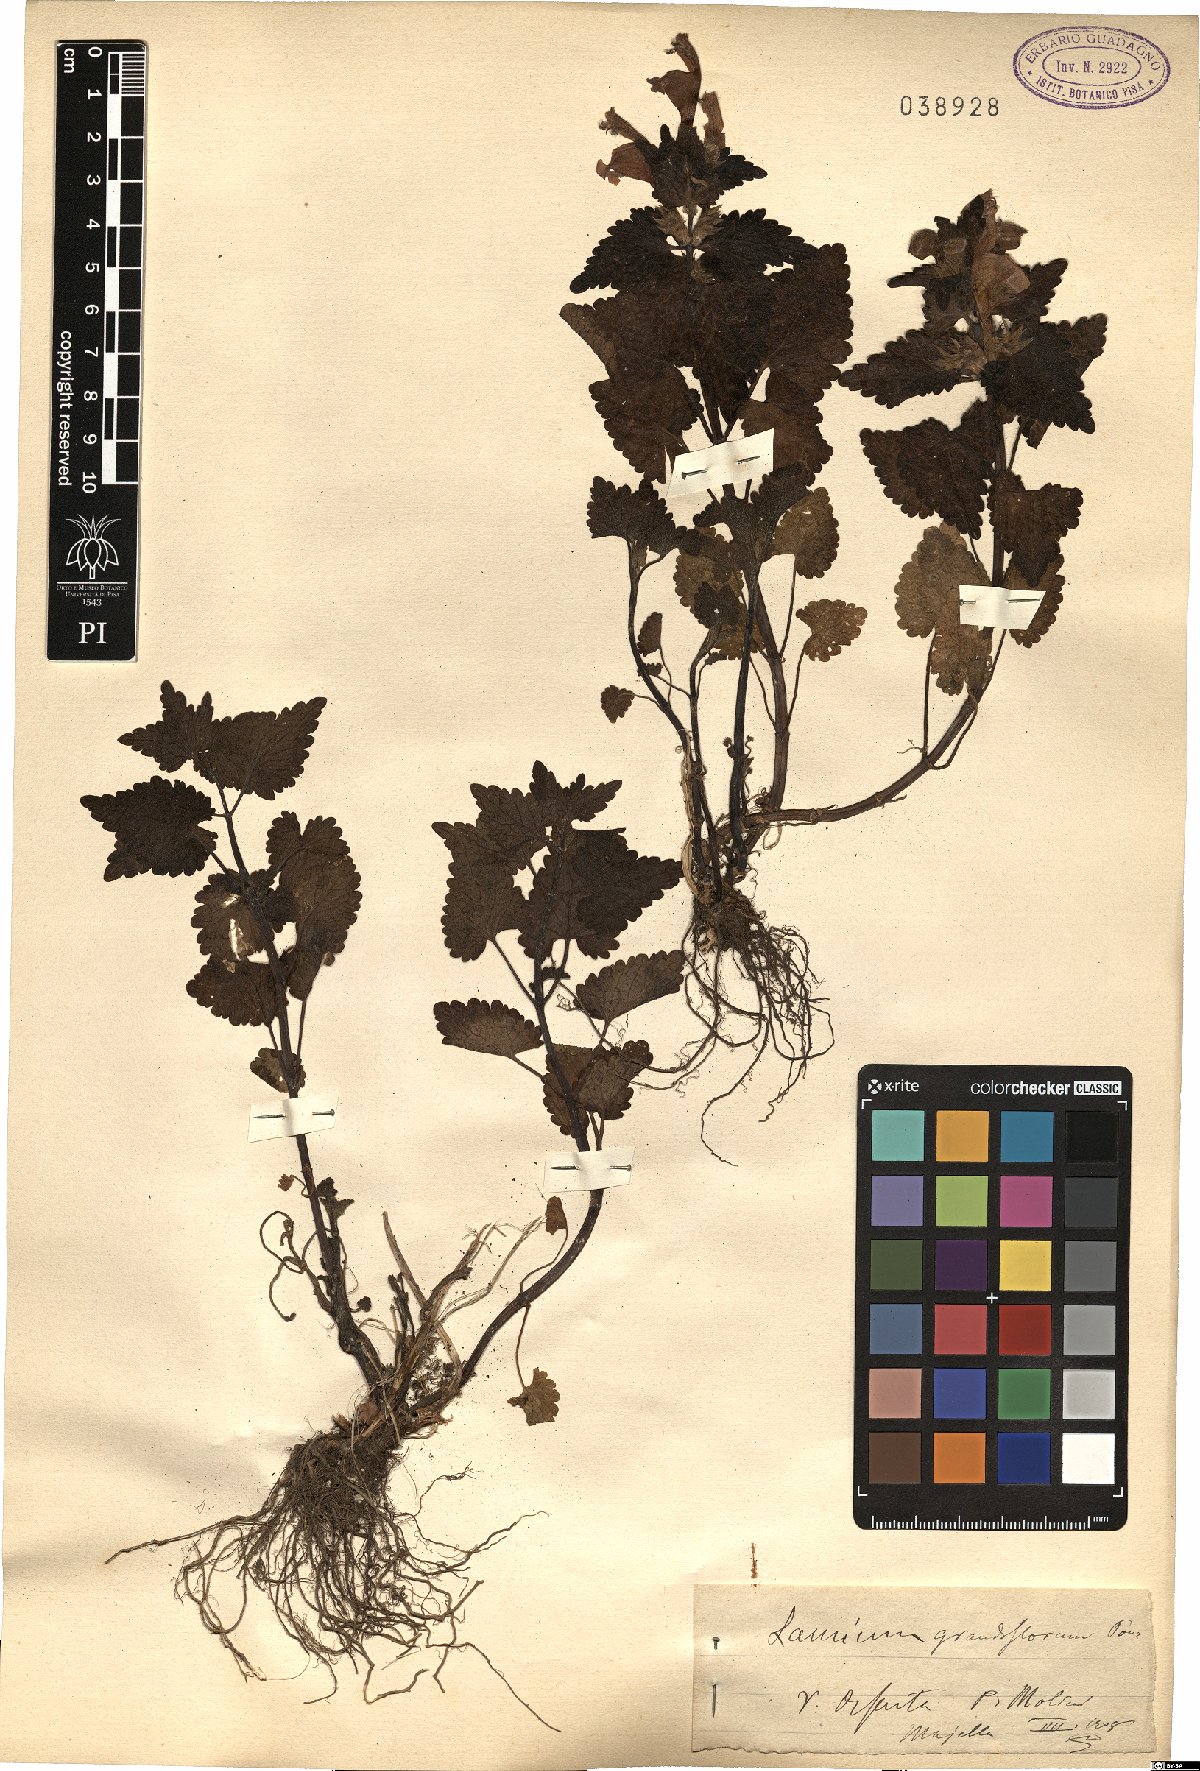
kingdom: Plantae
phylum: Tracheophyta
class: Magnoliopsida
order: Lamiales
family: Lamiaceae
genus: Lamium
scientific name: Lamium garganicum
